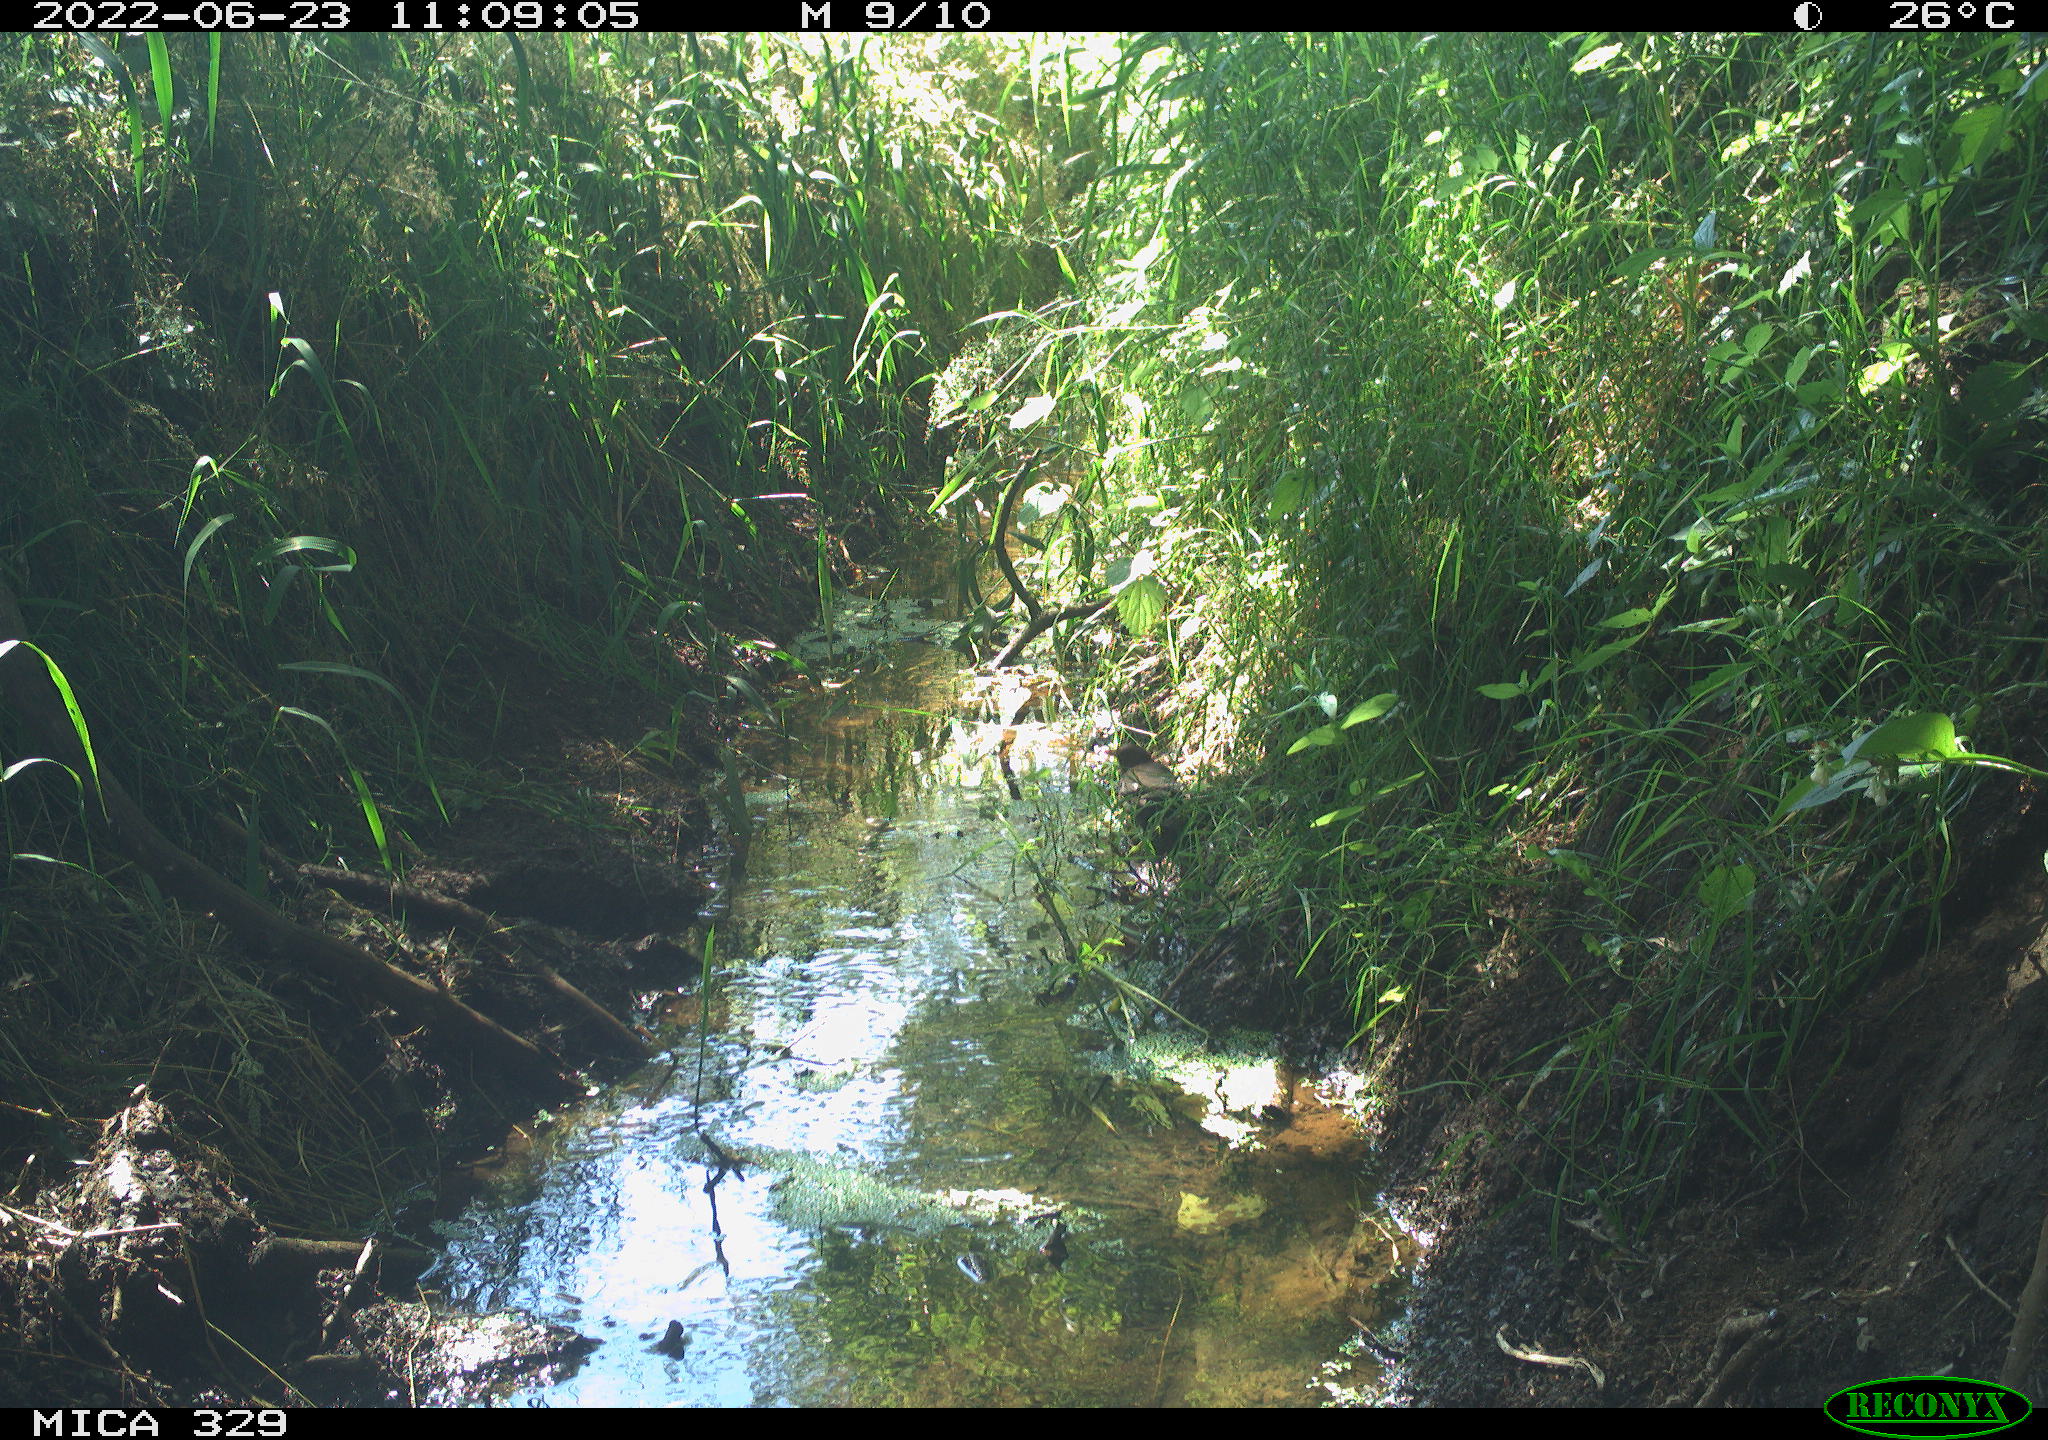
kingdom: Animalia
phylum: Chordata
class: Aves
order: Passeriformes
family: Turdidae
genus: Turdus
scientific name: Turdus merula
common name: Common blackbird
